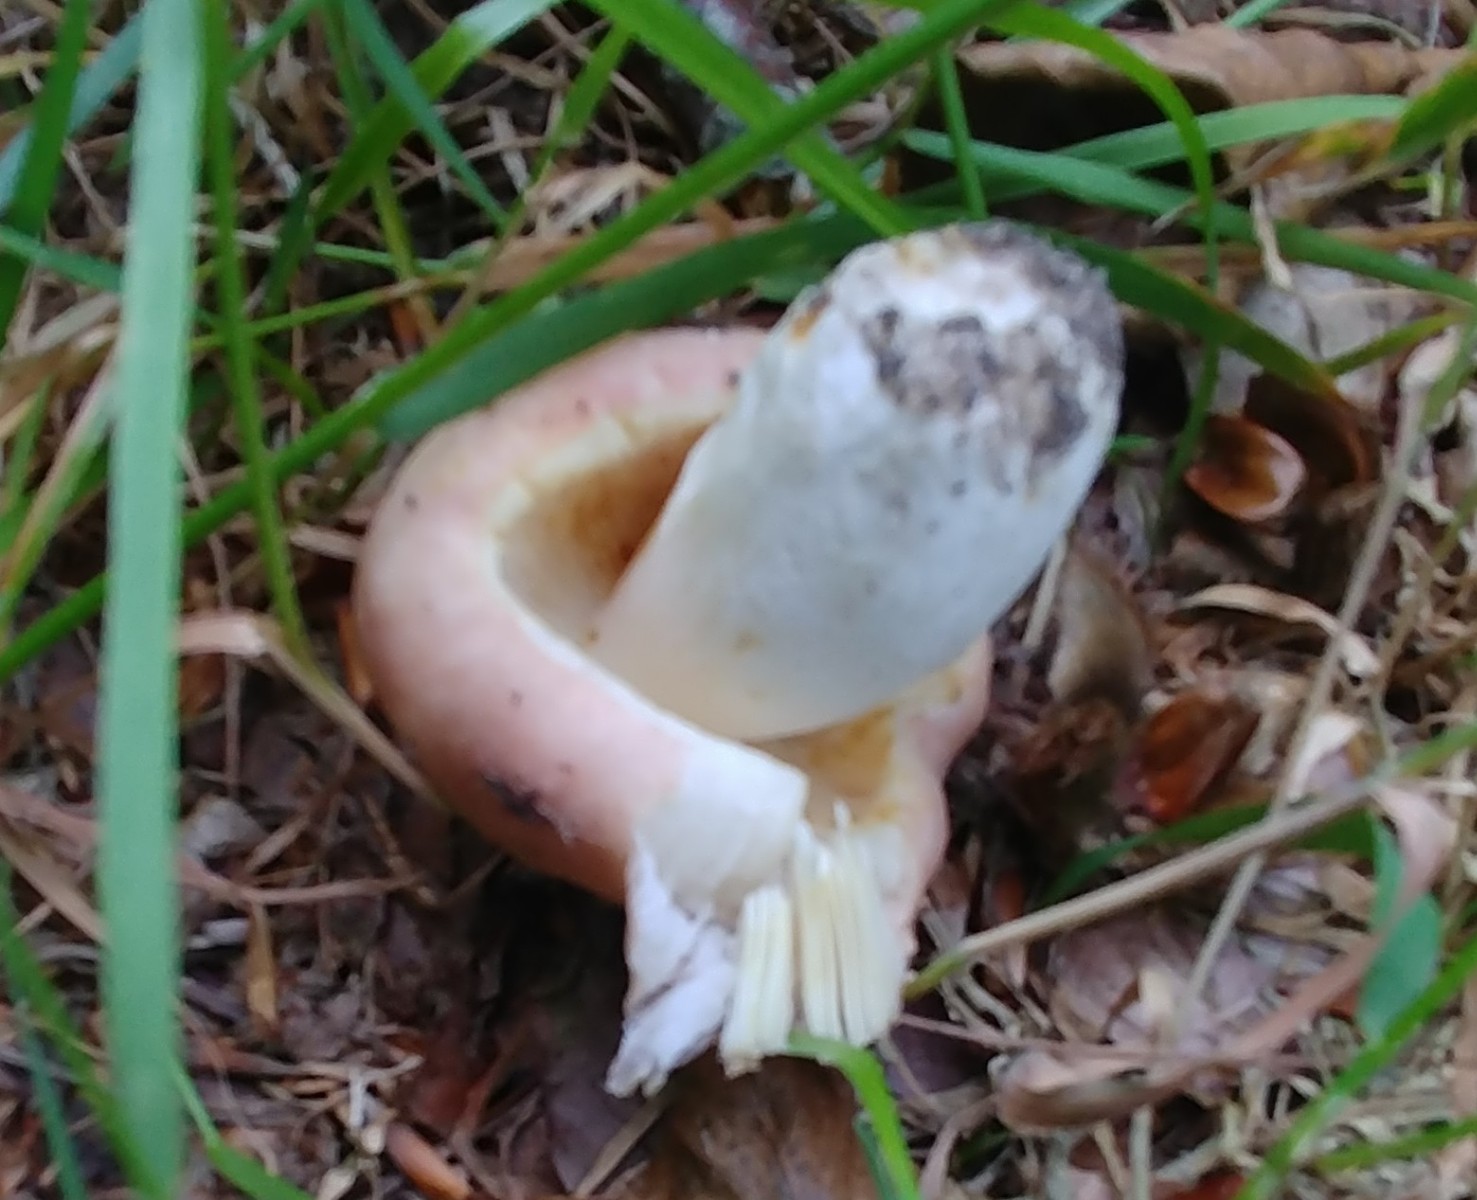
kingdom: Fungi
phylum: Basidiomycota
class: Agaricomycetes
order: Russulales
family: Russulaceae
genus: Russula
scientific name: Russula vesca
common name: spiselig skørhat
